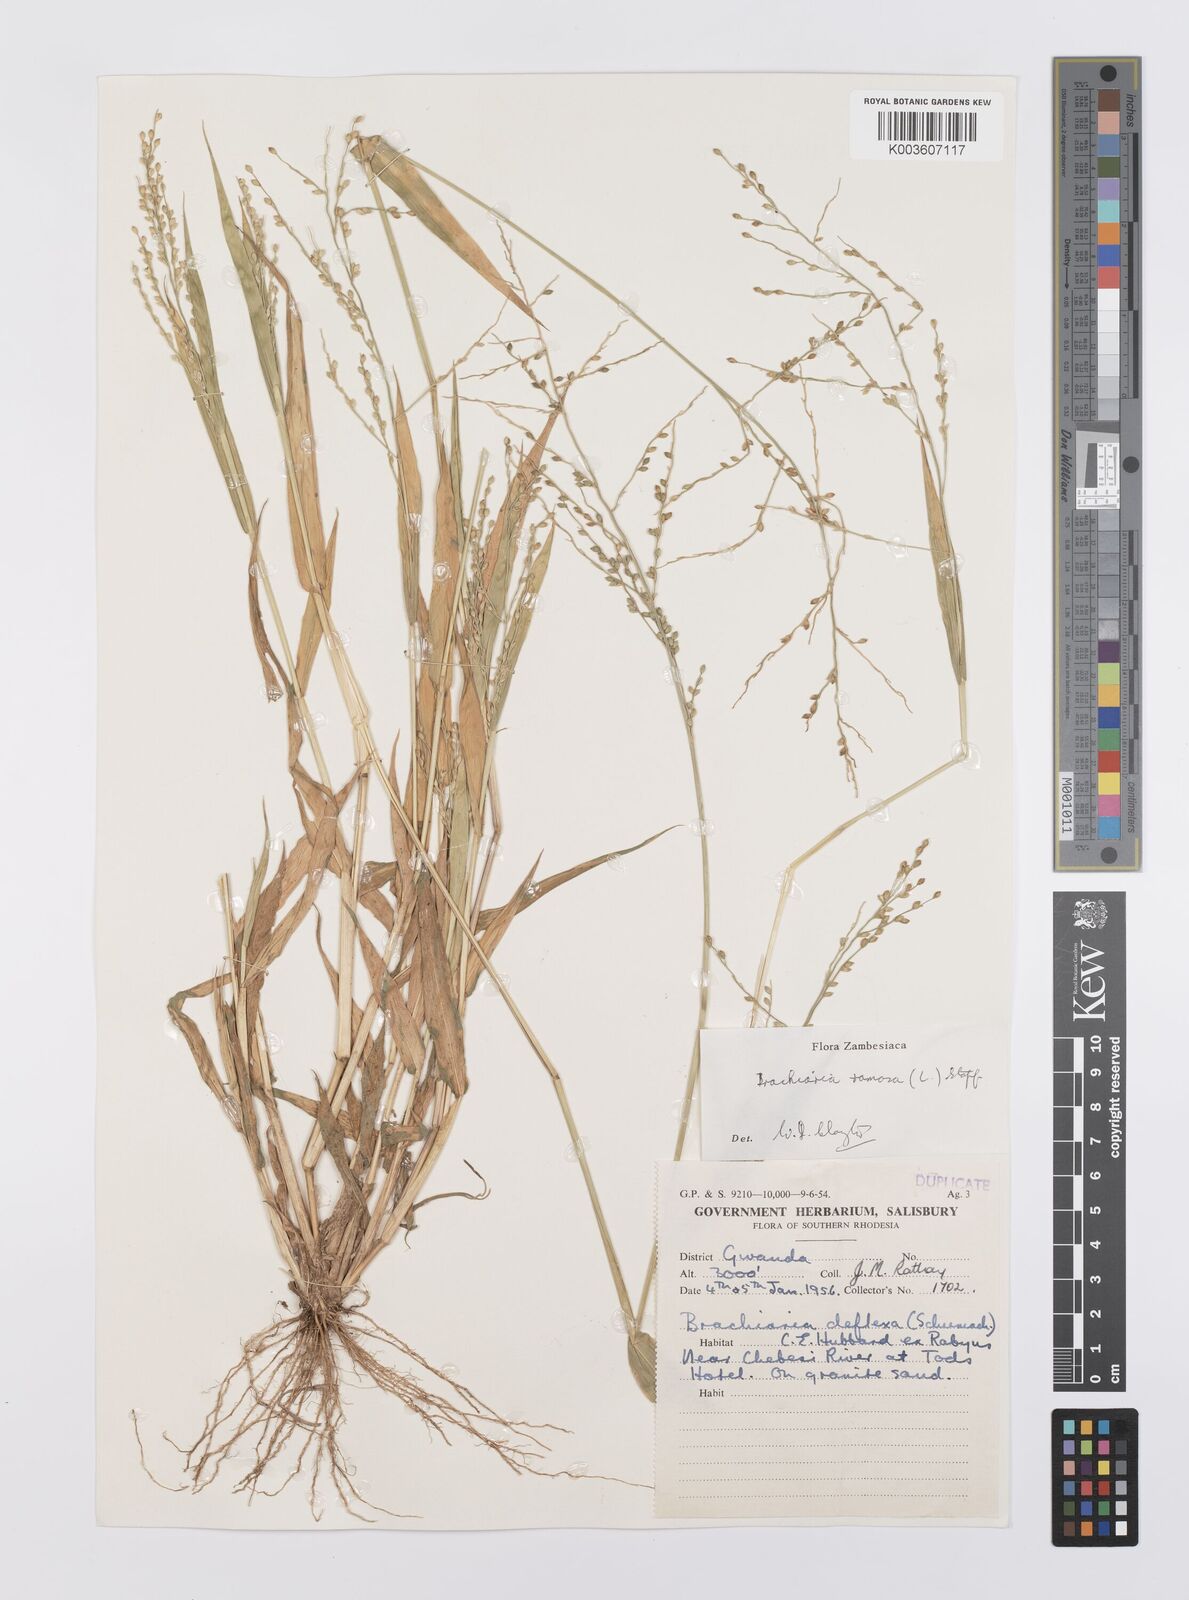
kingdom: Plantae
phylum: Tracheophyta
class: Liliopsida
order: Poales
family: Poaceae
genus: Urochloa
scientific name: Urochloa ramosa
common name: Browntop millet
